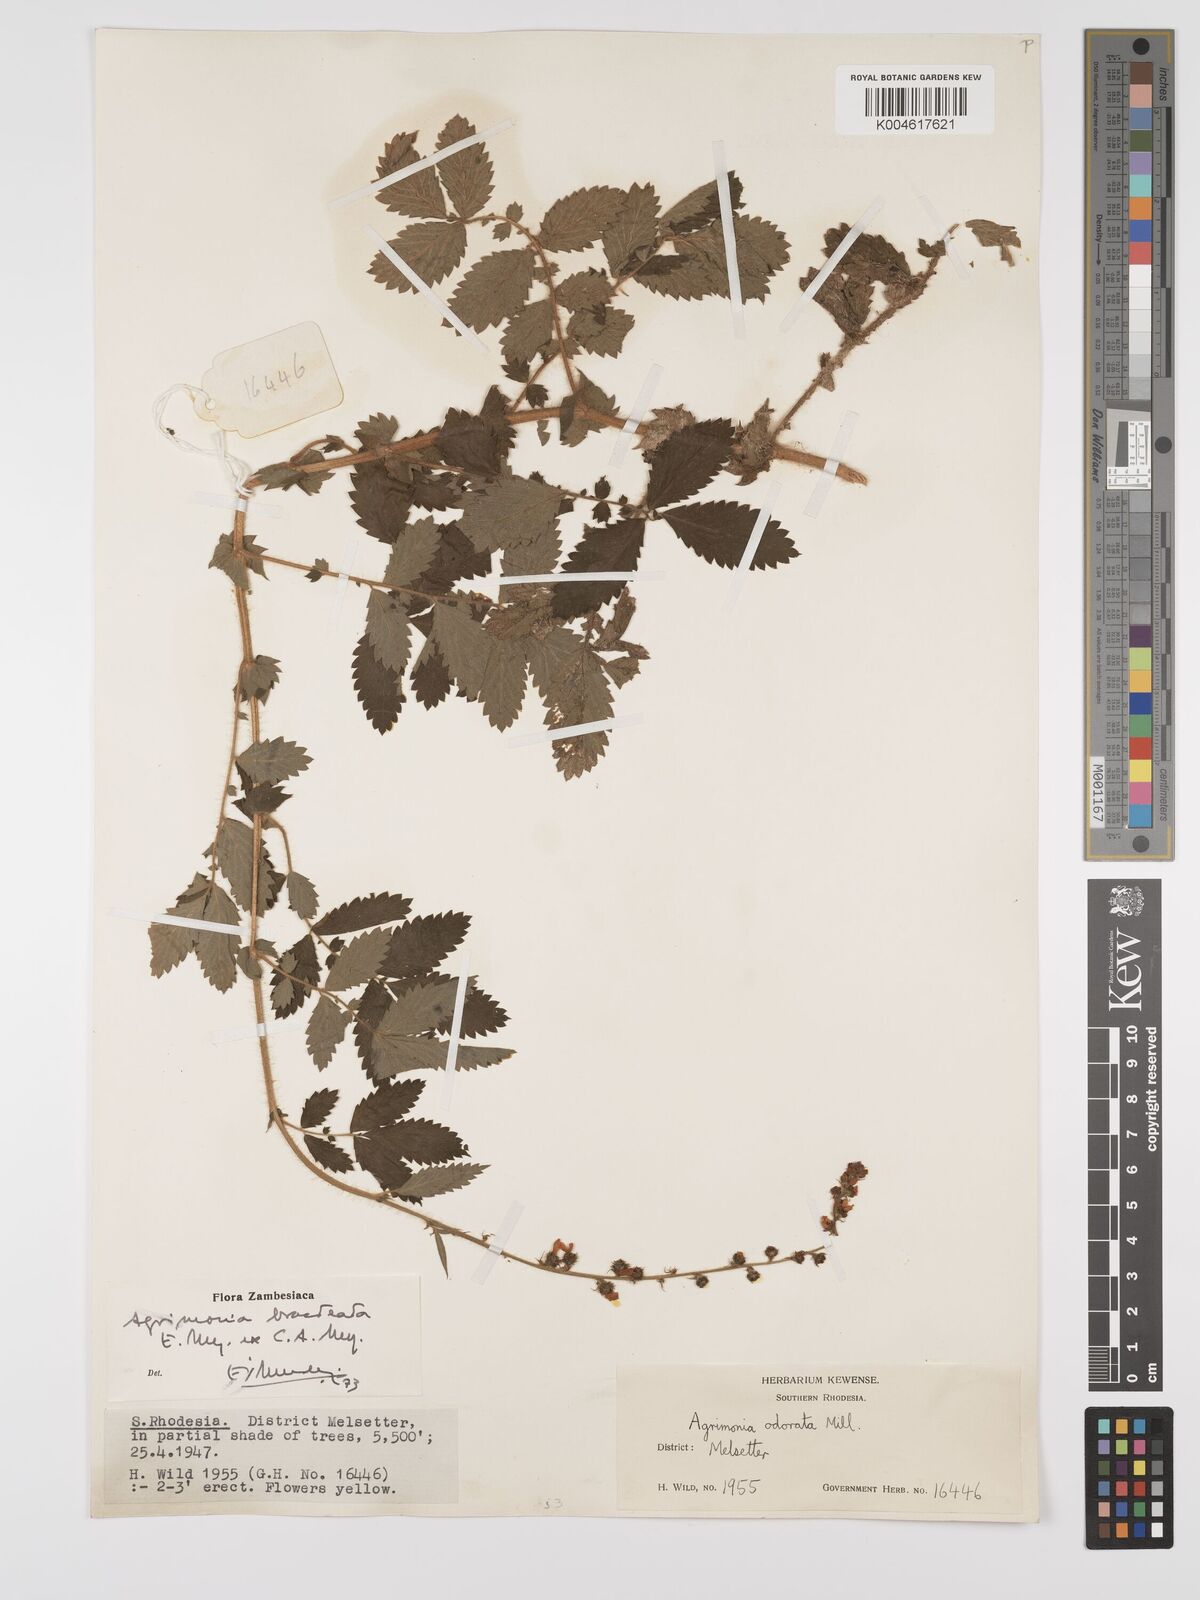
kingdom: Plantae
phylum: Tracheophyta
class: Magnoliopsida
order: Rosales
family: Rosaceae
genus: Agrimonia
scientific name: Agrimonia bracteata
